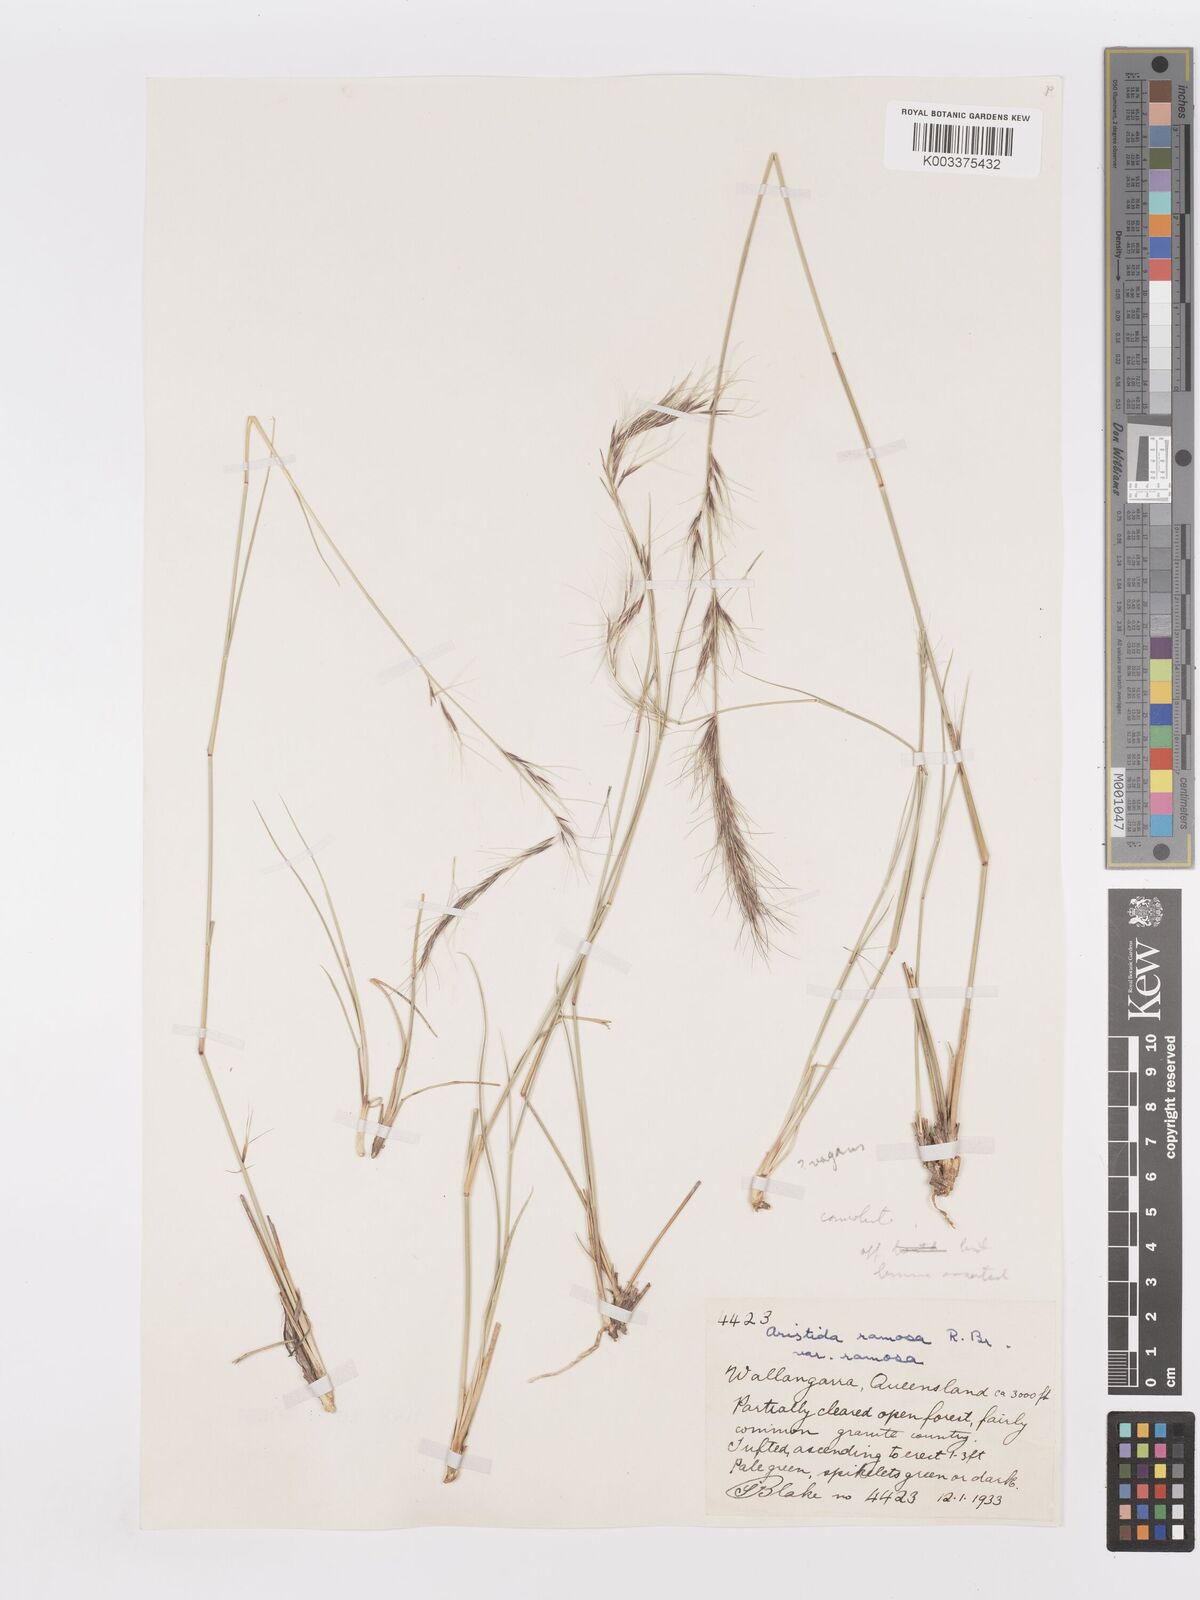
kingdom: Plantae
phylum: Tracheophyta
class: Liliopsida
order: Poales
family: Poaceae
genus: Aristida
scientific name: Aristida ramosa
